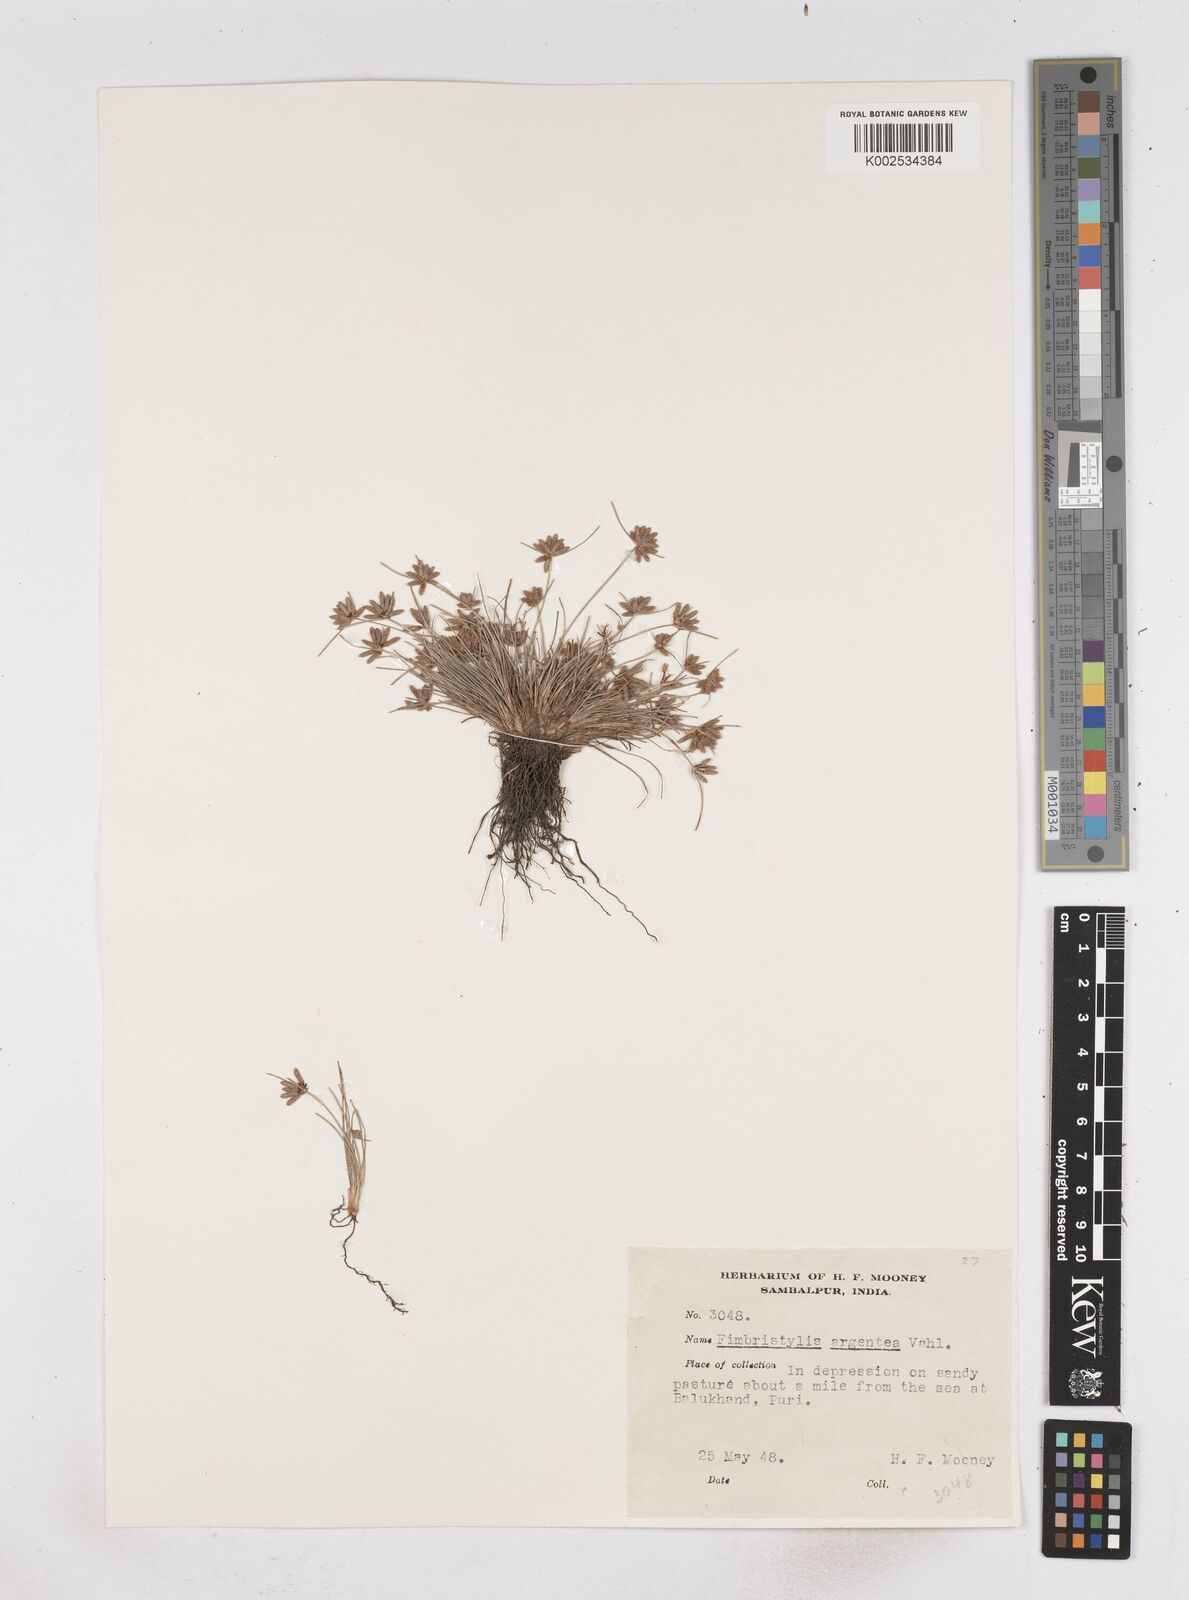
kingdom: Plantae
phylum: Tracheophyta
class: Liliopsida
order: Poales
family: Cyperaceae
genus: Fimbristylis
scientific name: Fimbristylis argentea
